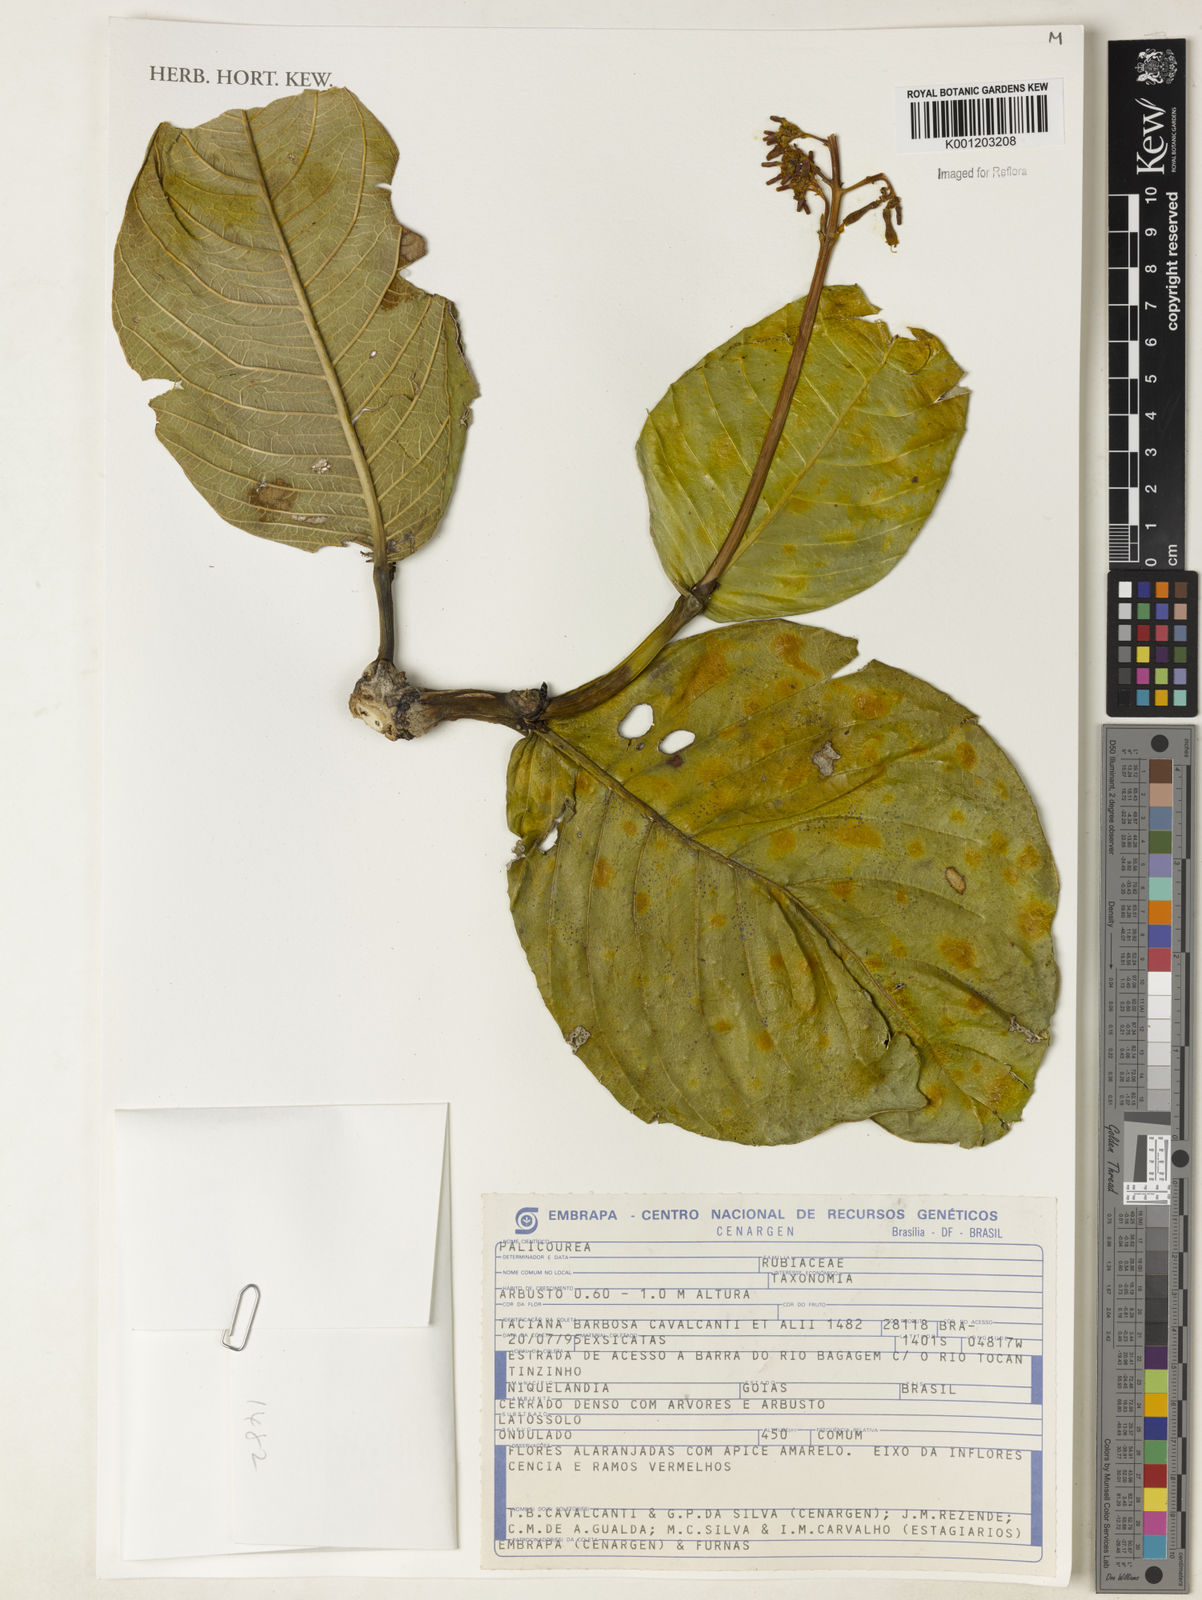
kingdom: Plantae
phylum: Tracheophyta
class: Magnoliopsida
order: Gentianales
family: Rubiaceae
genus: Palicourea
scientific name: Palicourea
